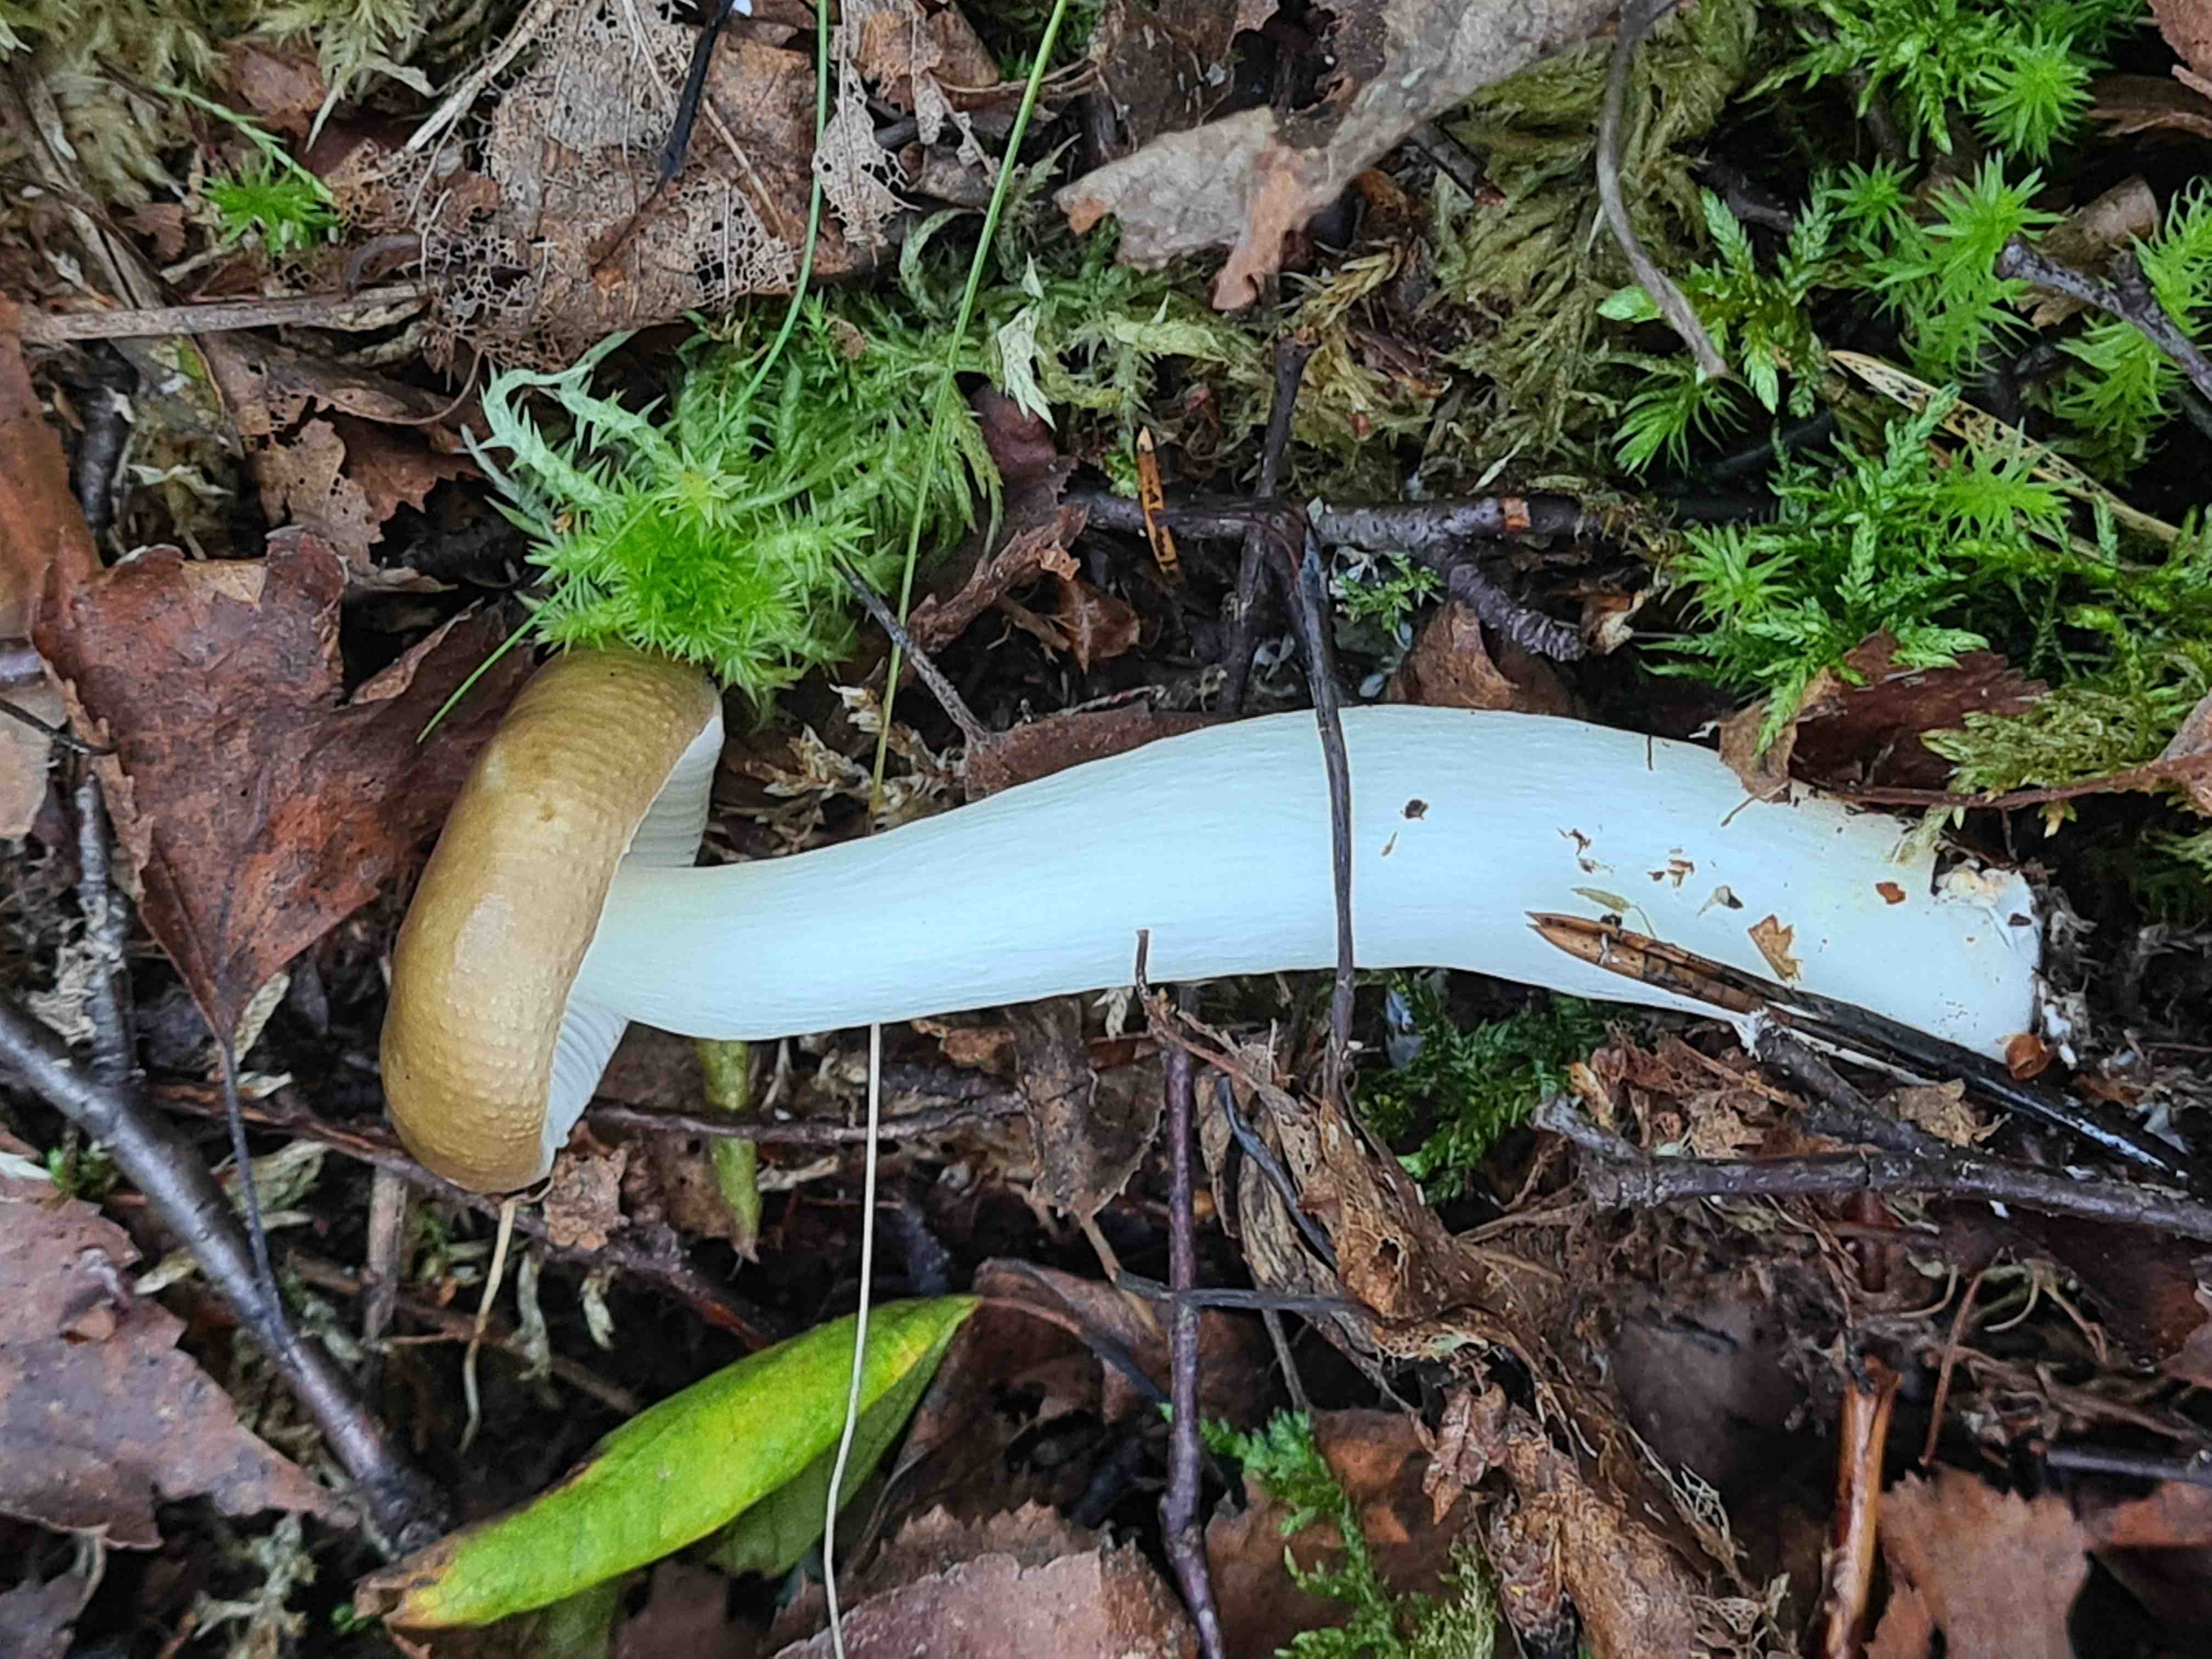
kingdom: Fungi
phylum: Basidiomycota
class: Agaricomycetes
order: Russulales
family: Russulaceae
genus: Russula
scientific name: Russula
